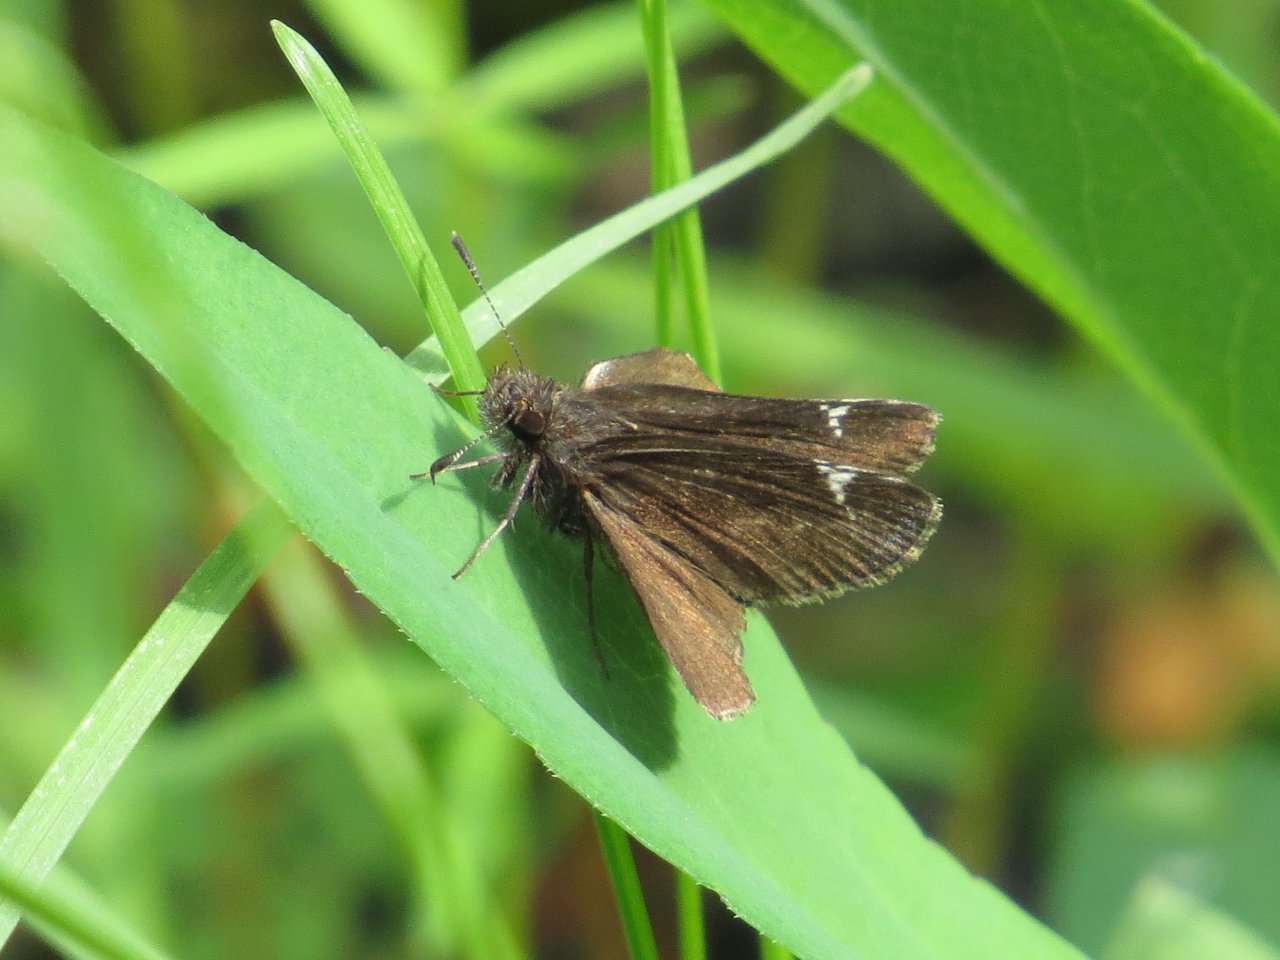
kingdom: Animalia
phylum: Arthropoda
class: Insecta
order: Lepidoptera
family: Hesperiidae
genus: Mastor
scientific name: Mastor vialis
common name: Common Roadside-Skipper
